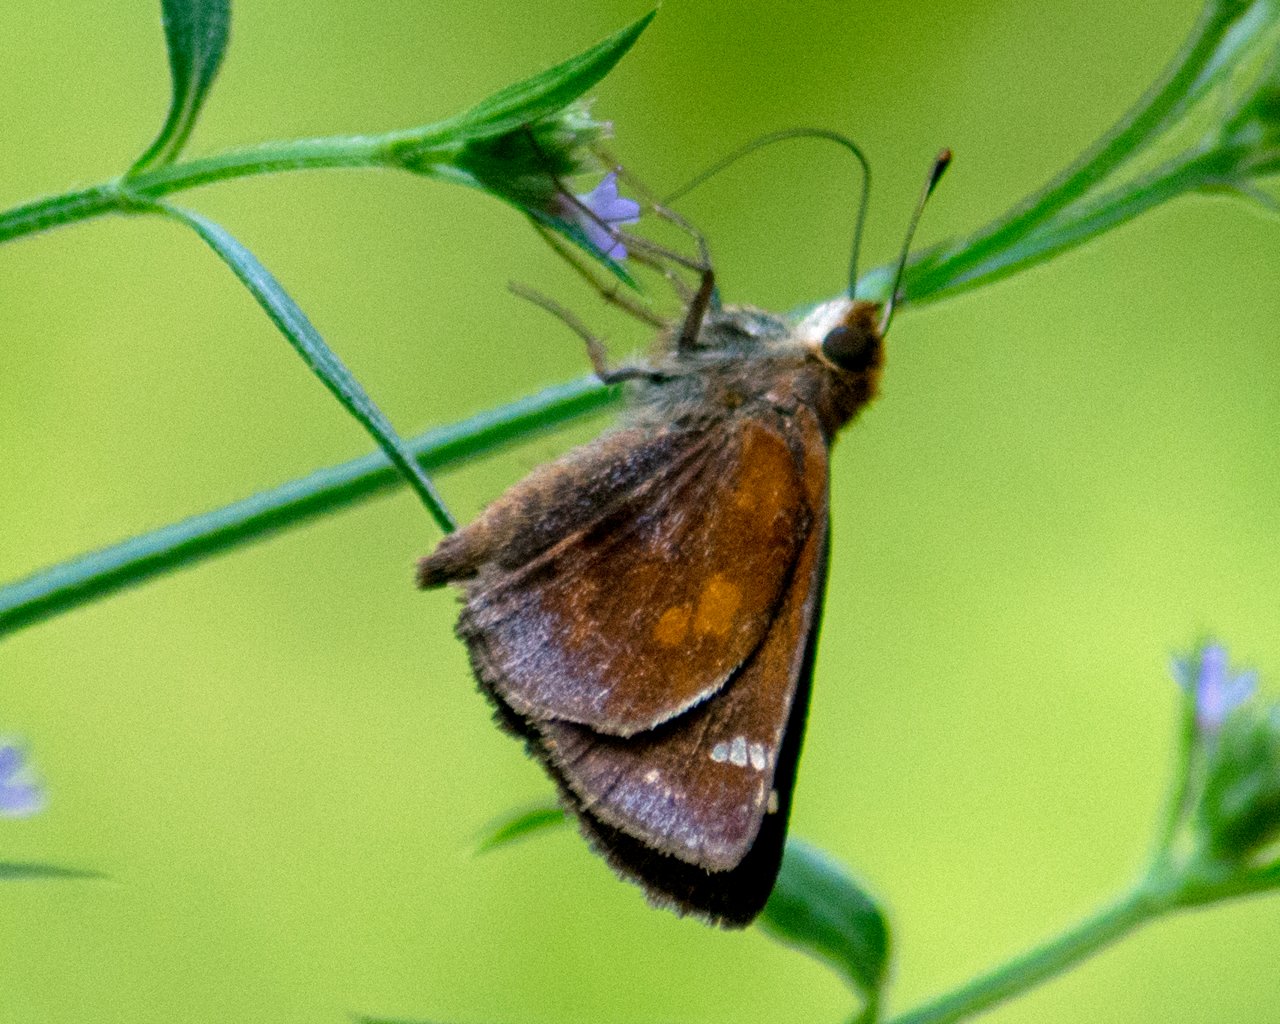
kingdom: Animalia
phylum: Arthropoda
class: Insecta
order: Lepidoptera
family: Hesperiidae
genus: Lon
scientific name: Lon zabulon
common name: Zabulon Skipper
